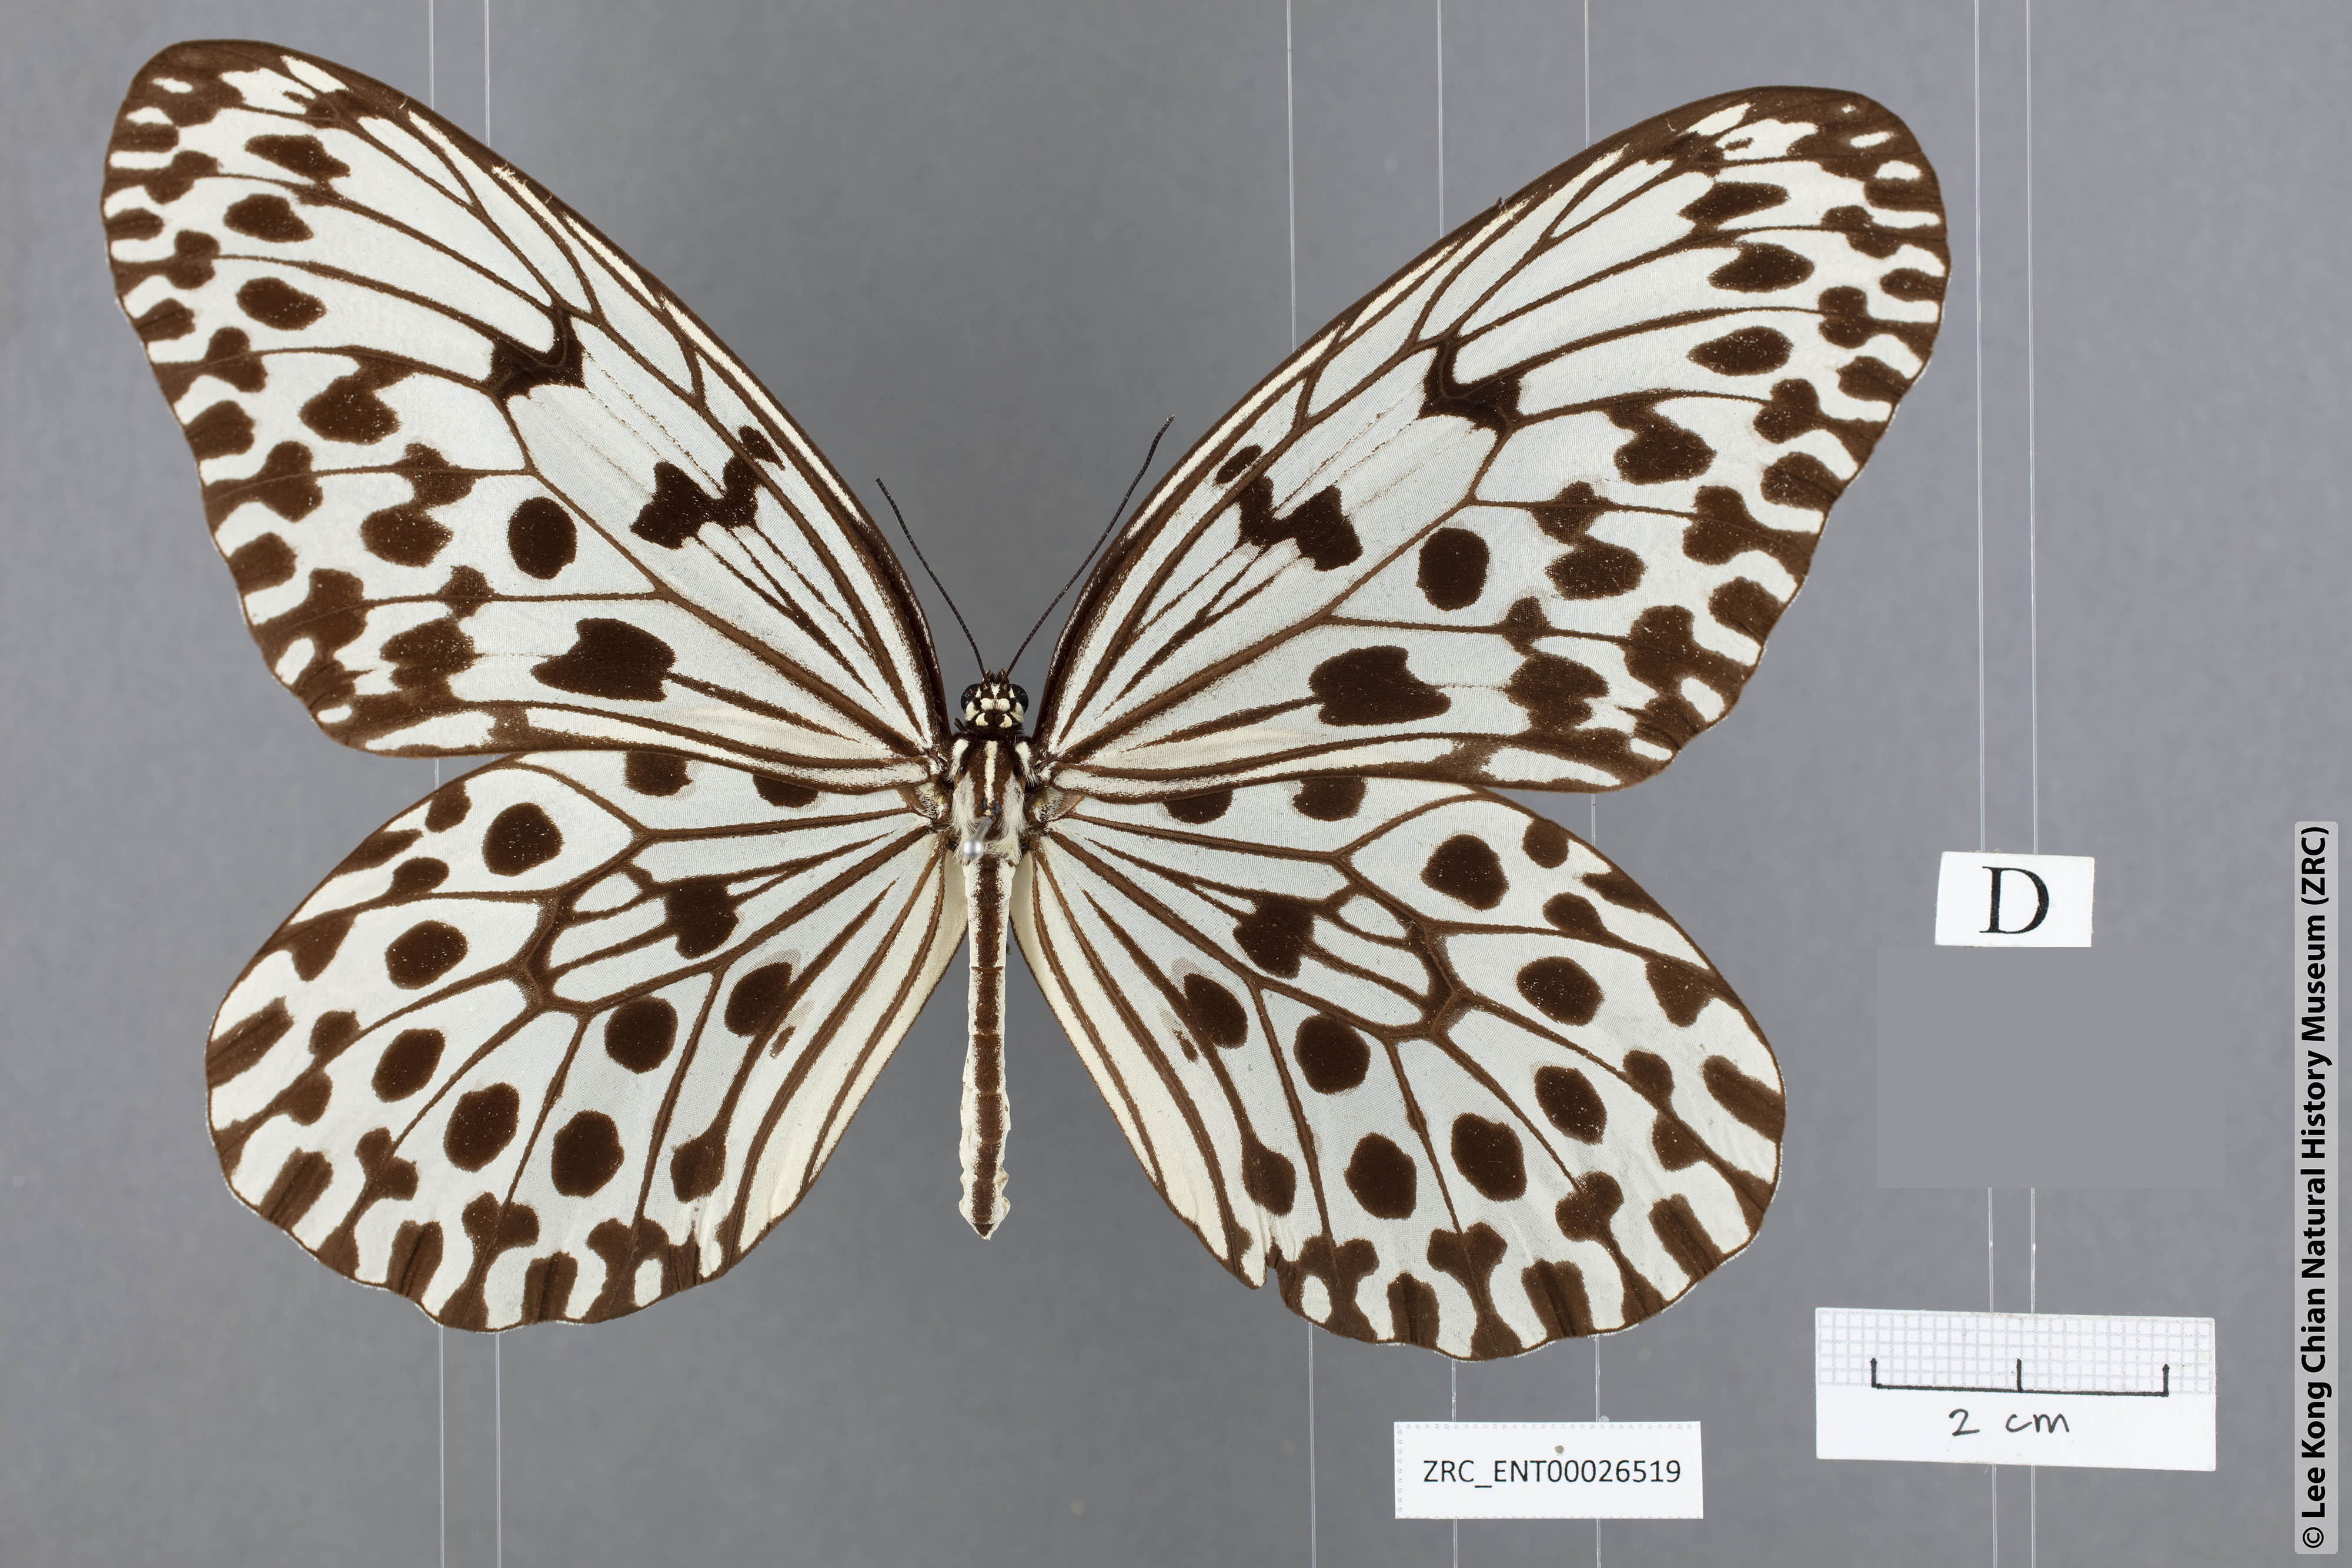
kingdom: Animalia
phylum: Arthropoda
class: Insecta
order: Lepidoptera
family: Nymphalidae
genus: Idea
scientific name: Idea hypermnestra
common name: Malayan tree nymph
